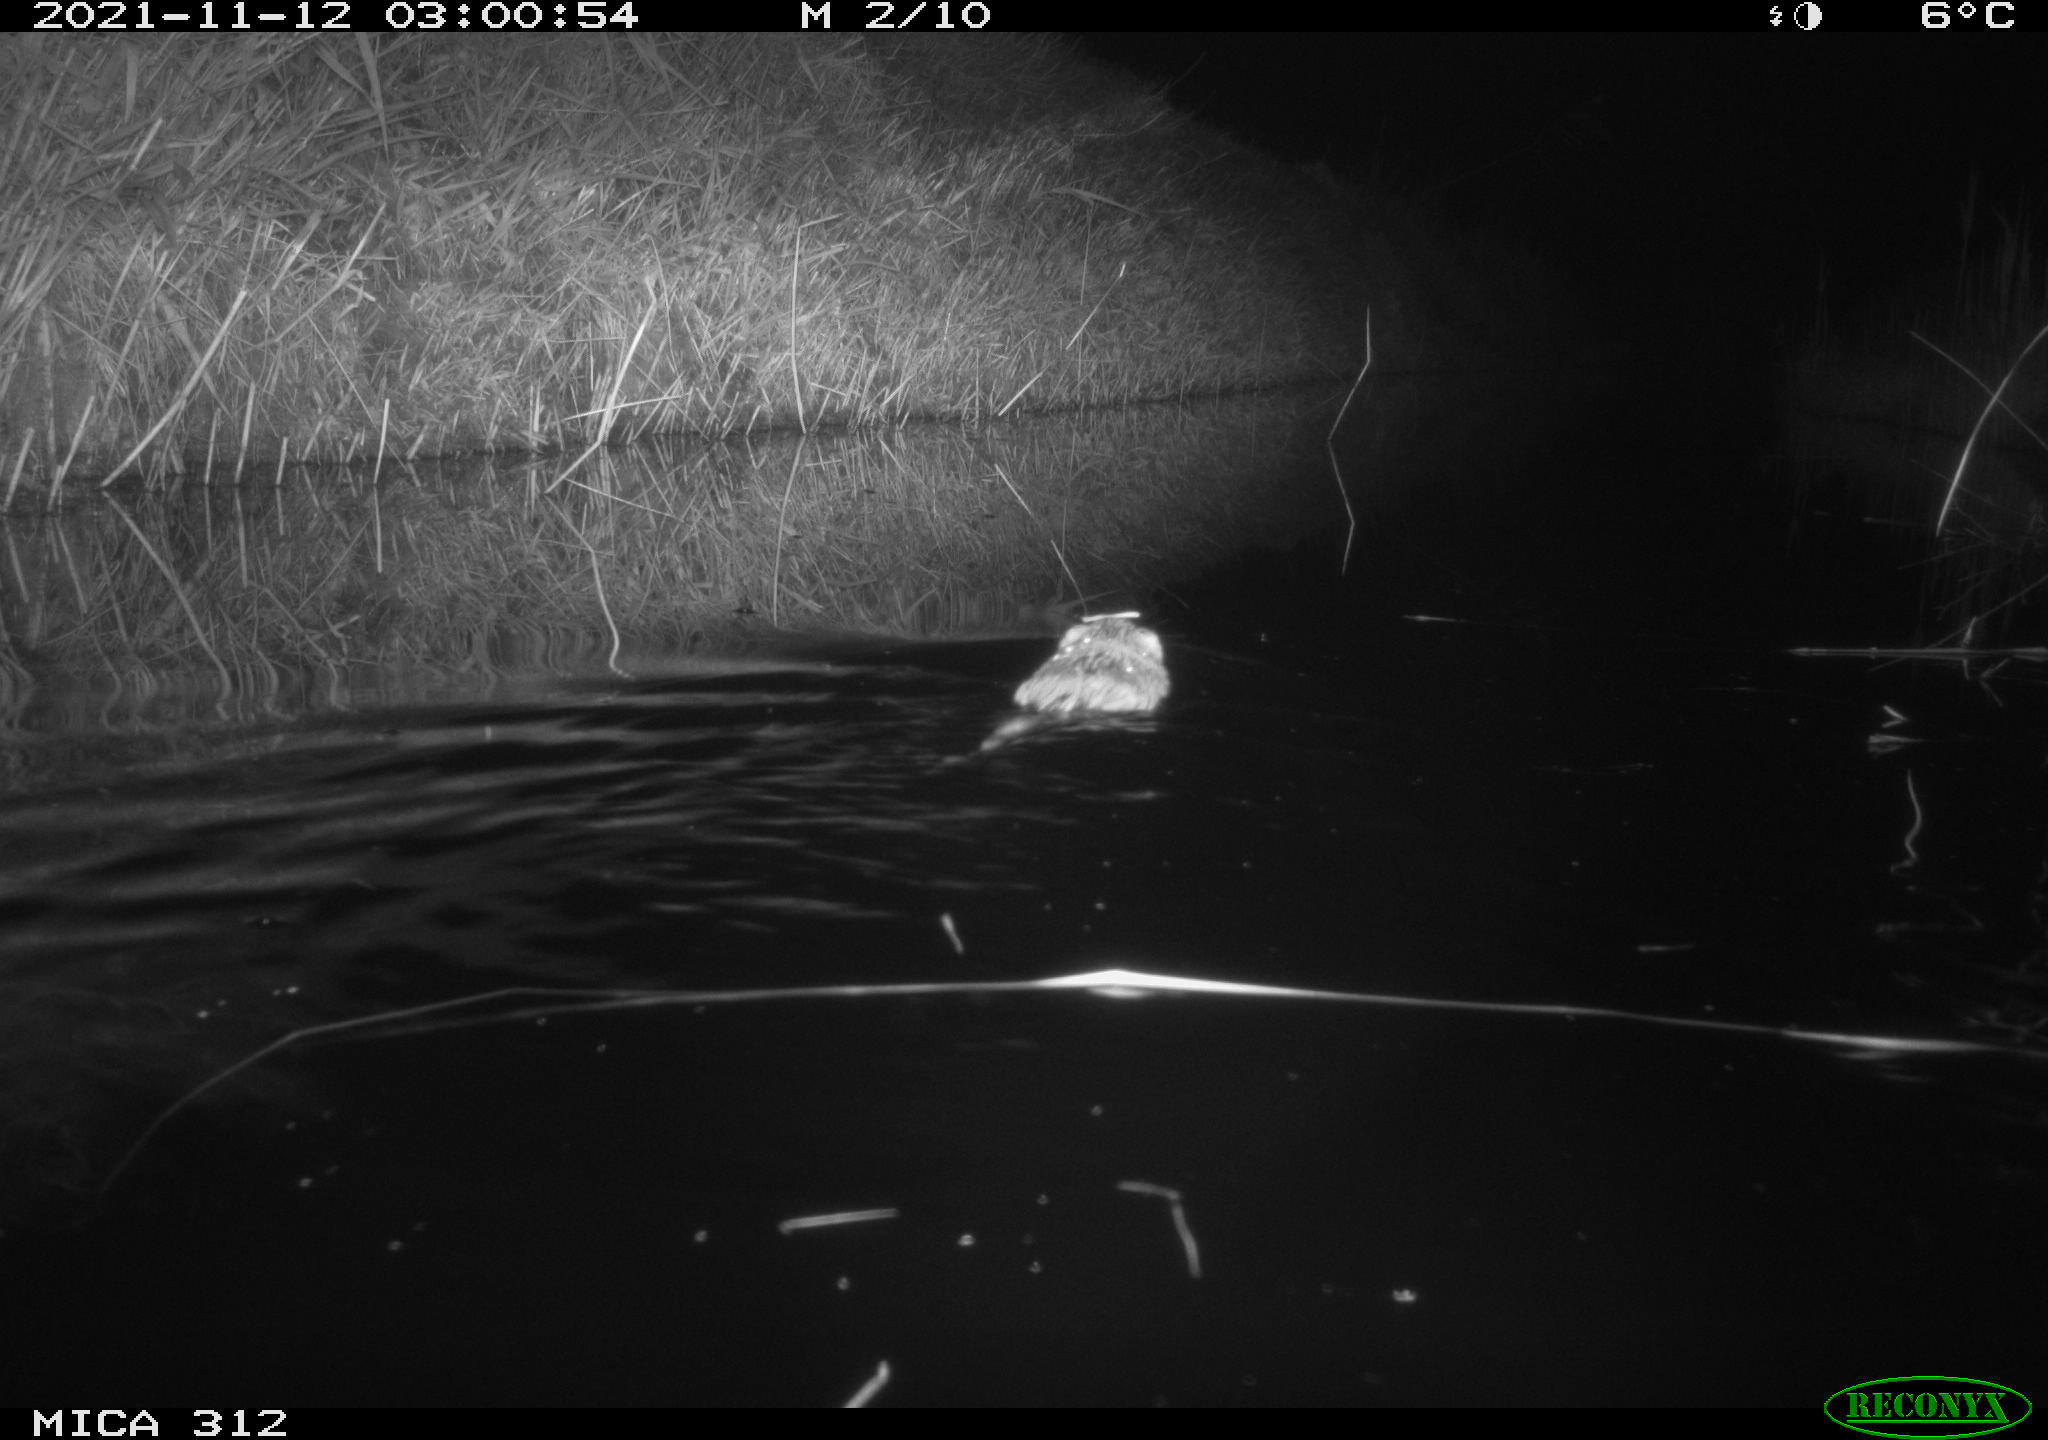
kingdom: Animalia
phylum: Chordata
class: Mammalia
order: Rodentia
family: Cricetidae
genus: Ondatra
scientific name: Ondatra zibethicus
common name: Muskrat
